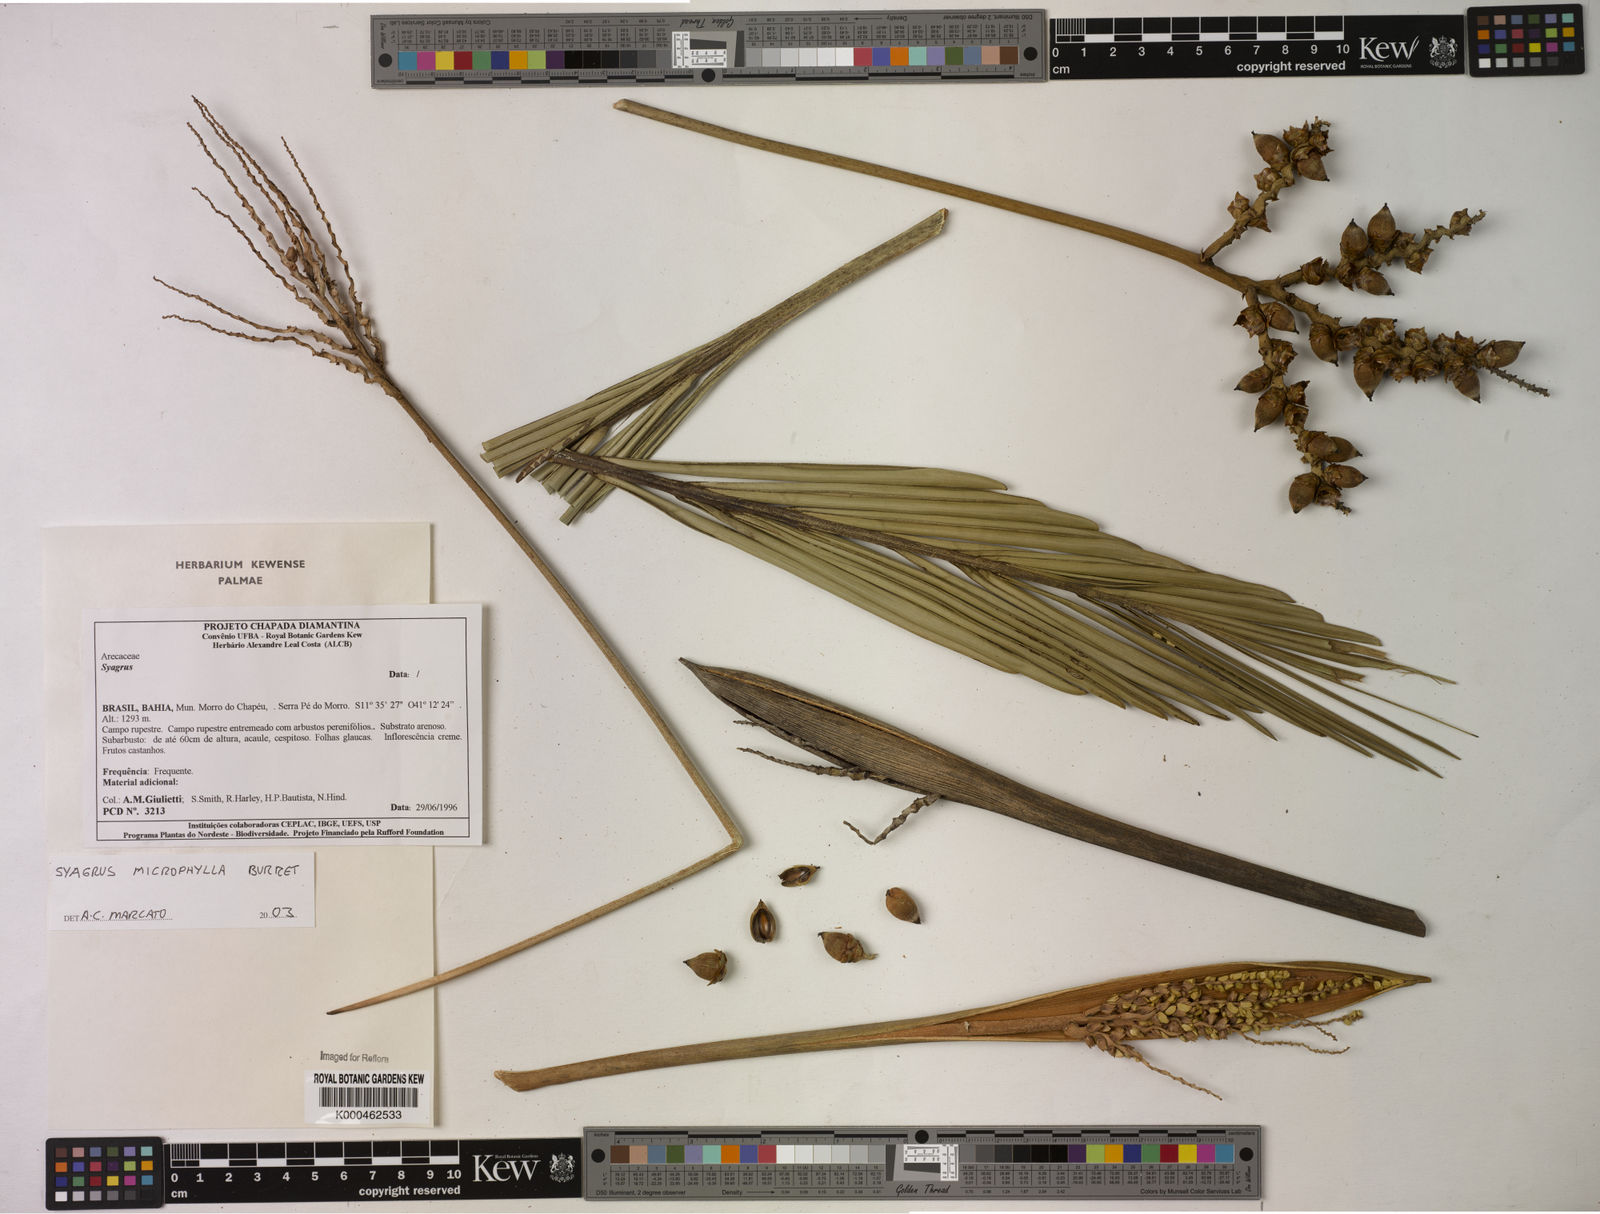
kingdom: Plantae
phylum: Tracheophyta
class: Liliopsida
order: Arecales
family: Arecaceae
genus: Syagrus
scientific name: Syagrus microphylla
